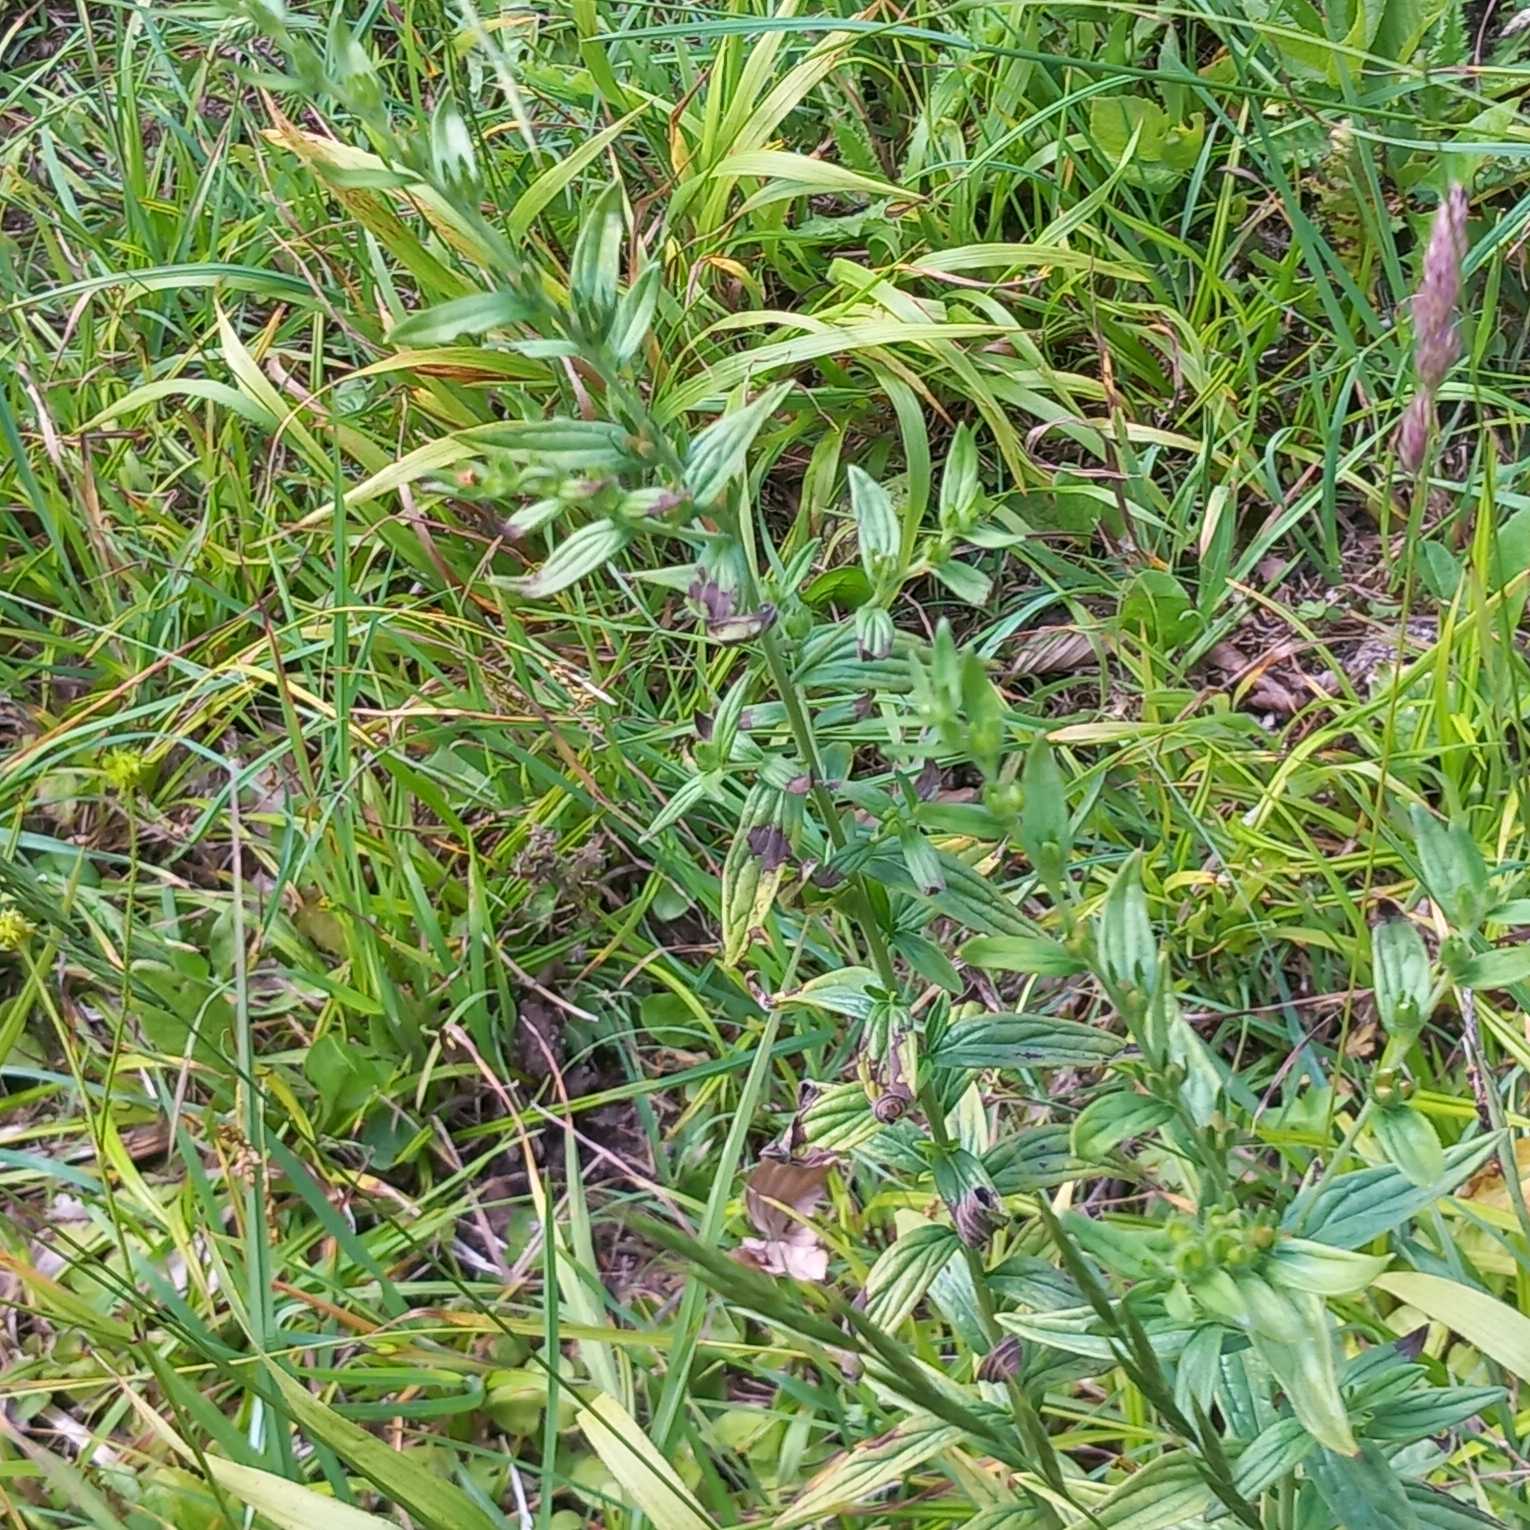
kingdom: Plantae
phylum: Tracheophyta
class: Magnoliopsida
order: Boraginales
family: Boraginaceae
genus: Lithospermum
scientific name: Lithospermum officinale
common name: Læge-stenfrø
